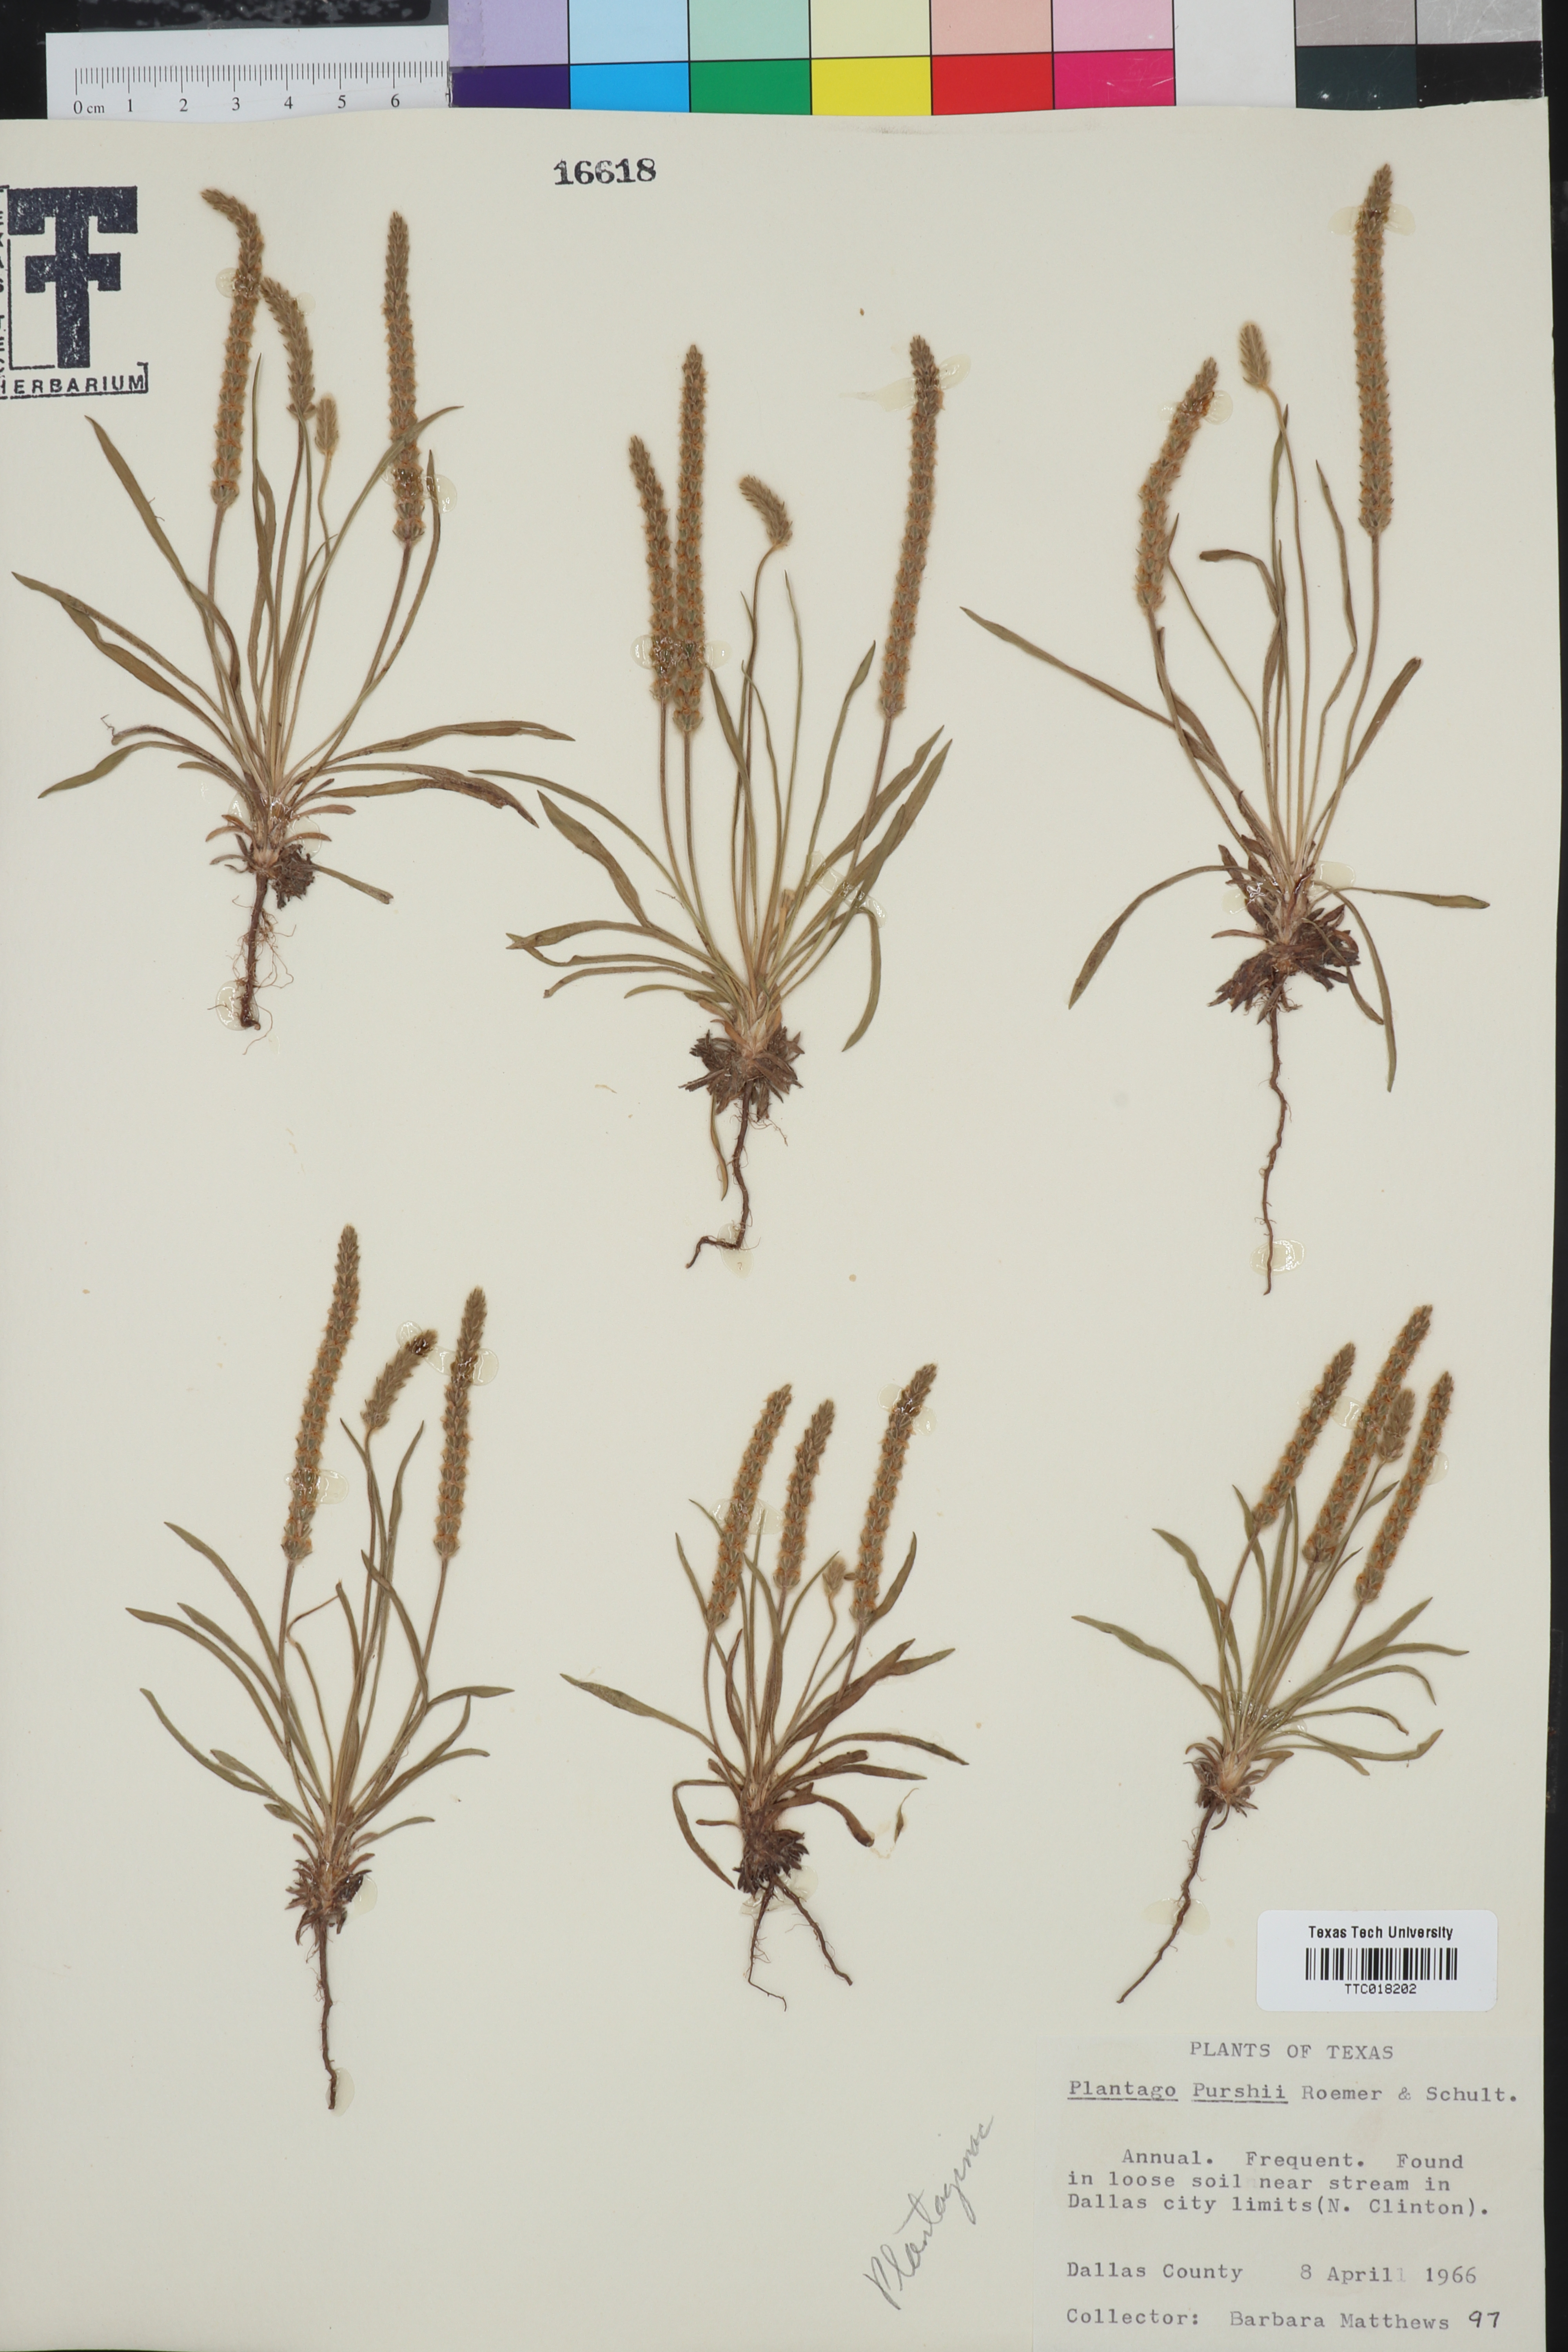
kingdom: Plantae
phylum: Tracheophyta
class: Magnoliopsida
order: Lamiales
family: Plantaginaceae
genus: Plantago
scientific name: Plantago patagonica
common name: Patagonia indian-wheat
